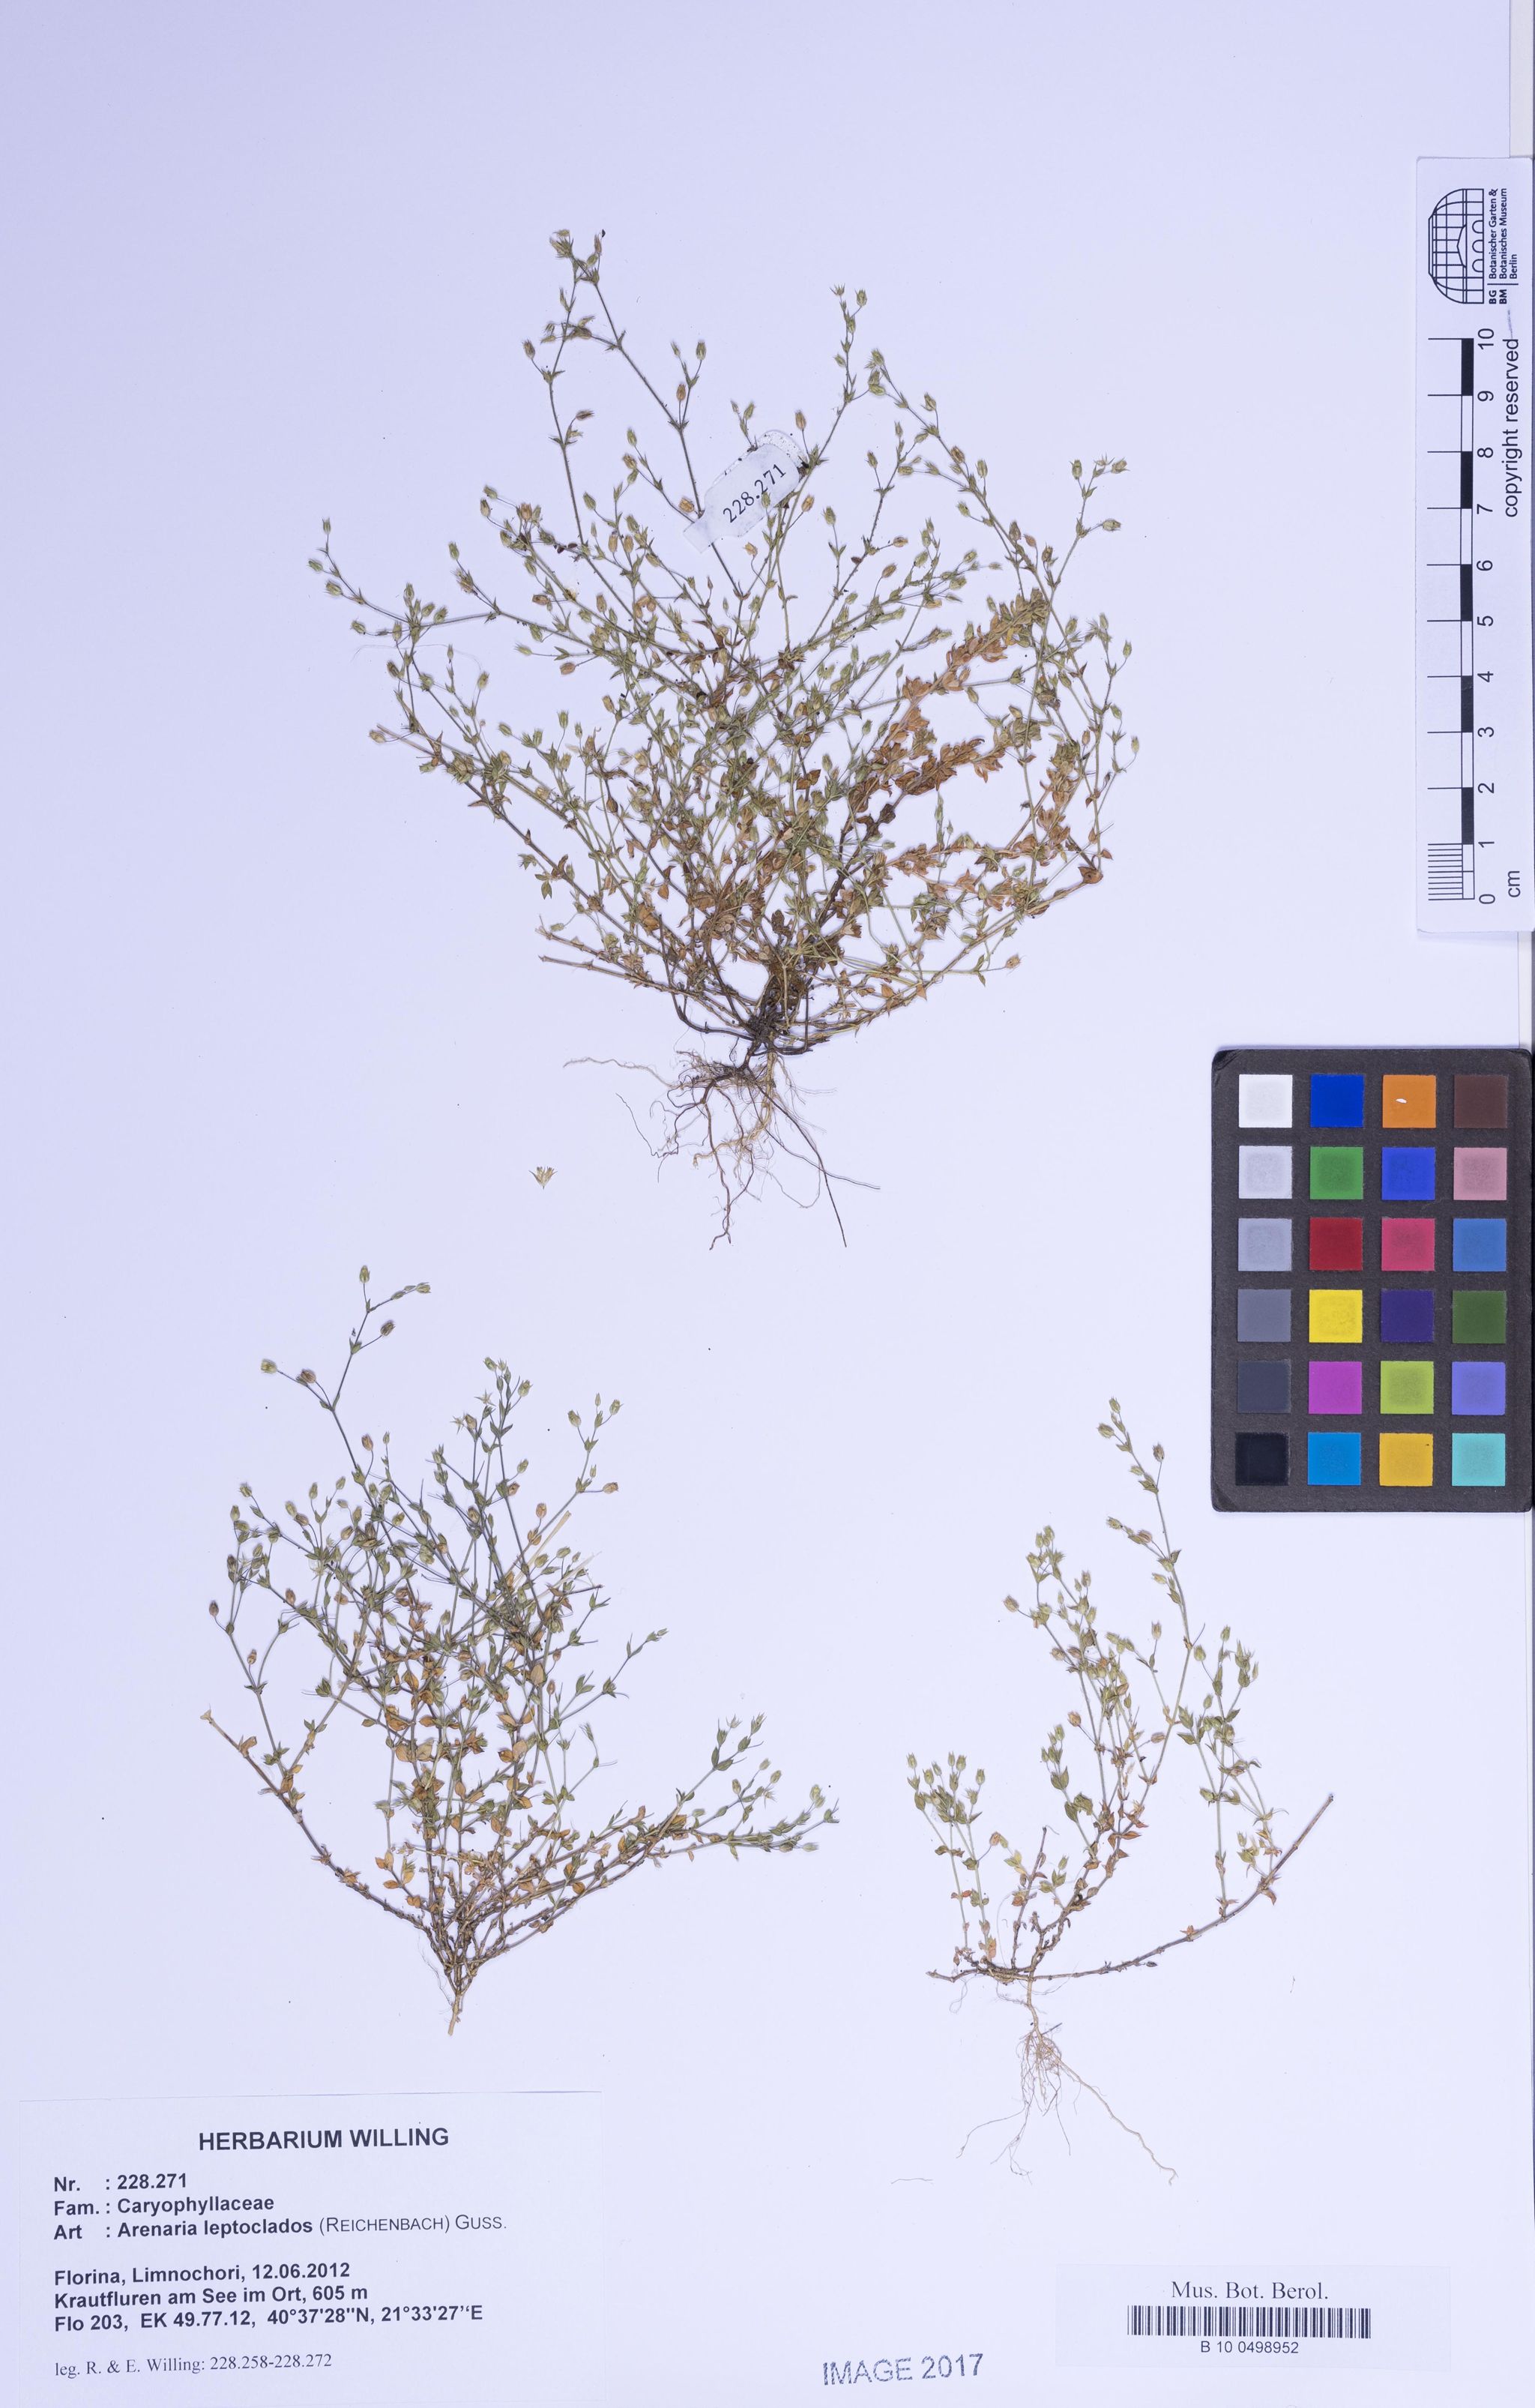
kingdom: Plantae
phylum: Tracheophyta
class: Magnoliopsida
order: Caryophyllales
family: Caryophyllaceae
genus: Arenaria
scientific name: Arenaria leptoclados
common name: Thyme-leaved sandwort
